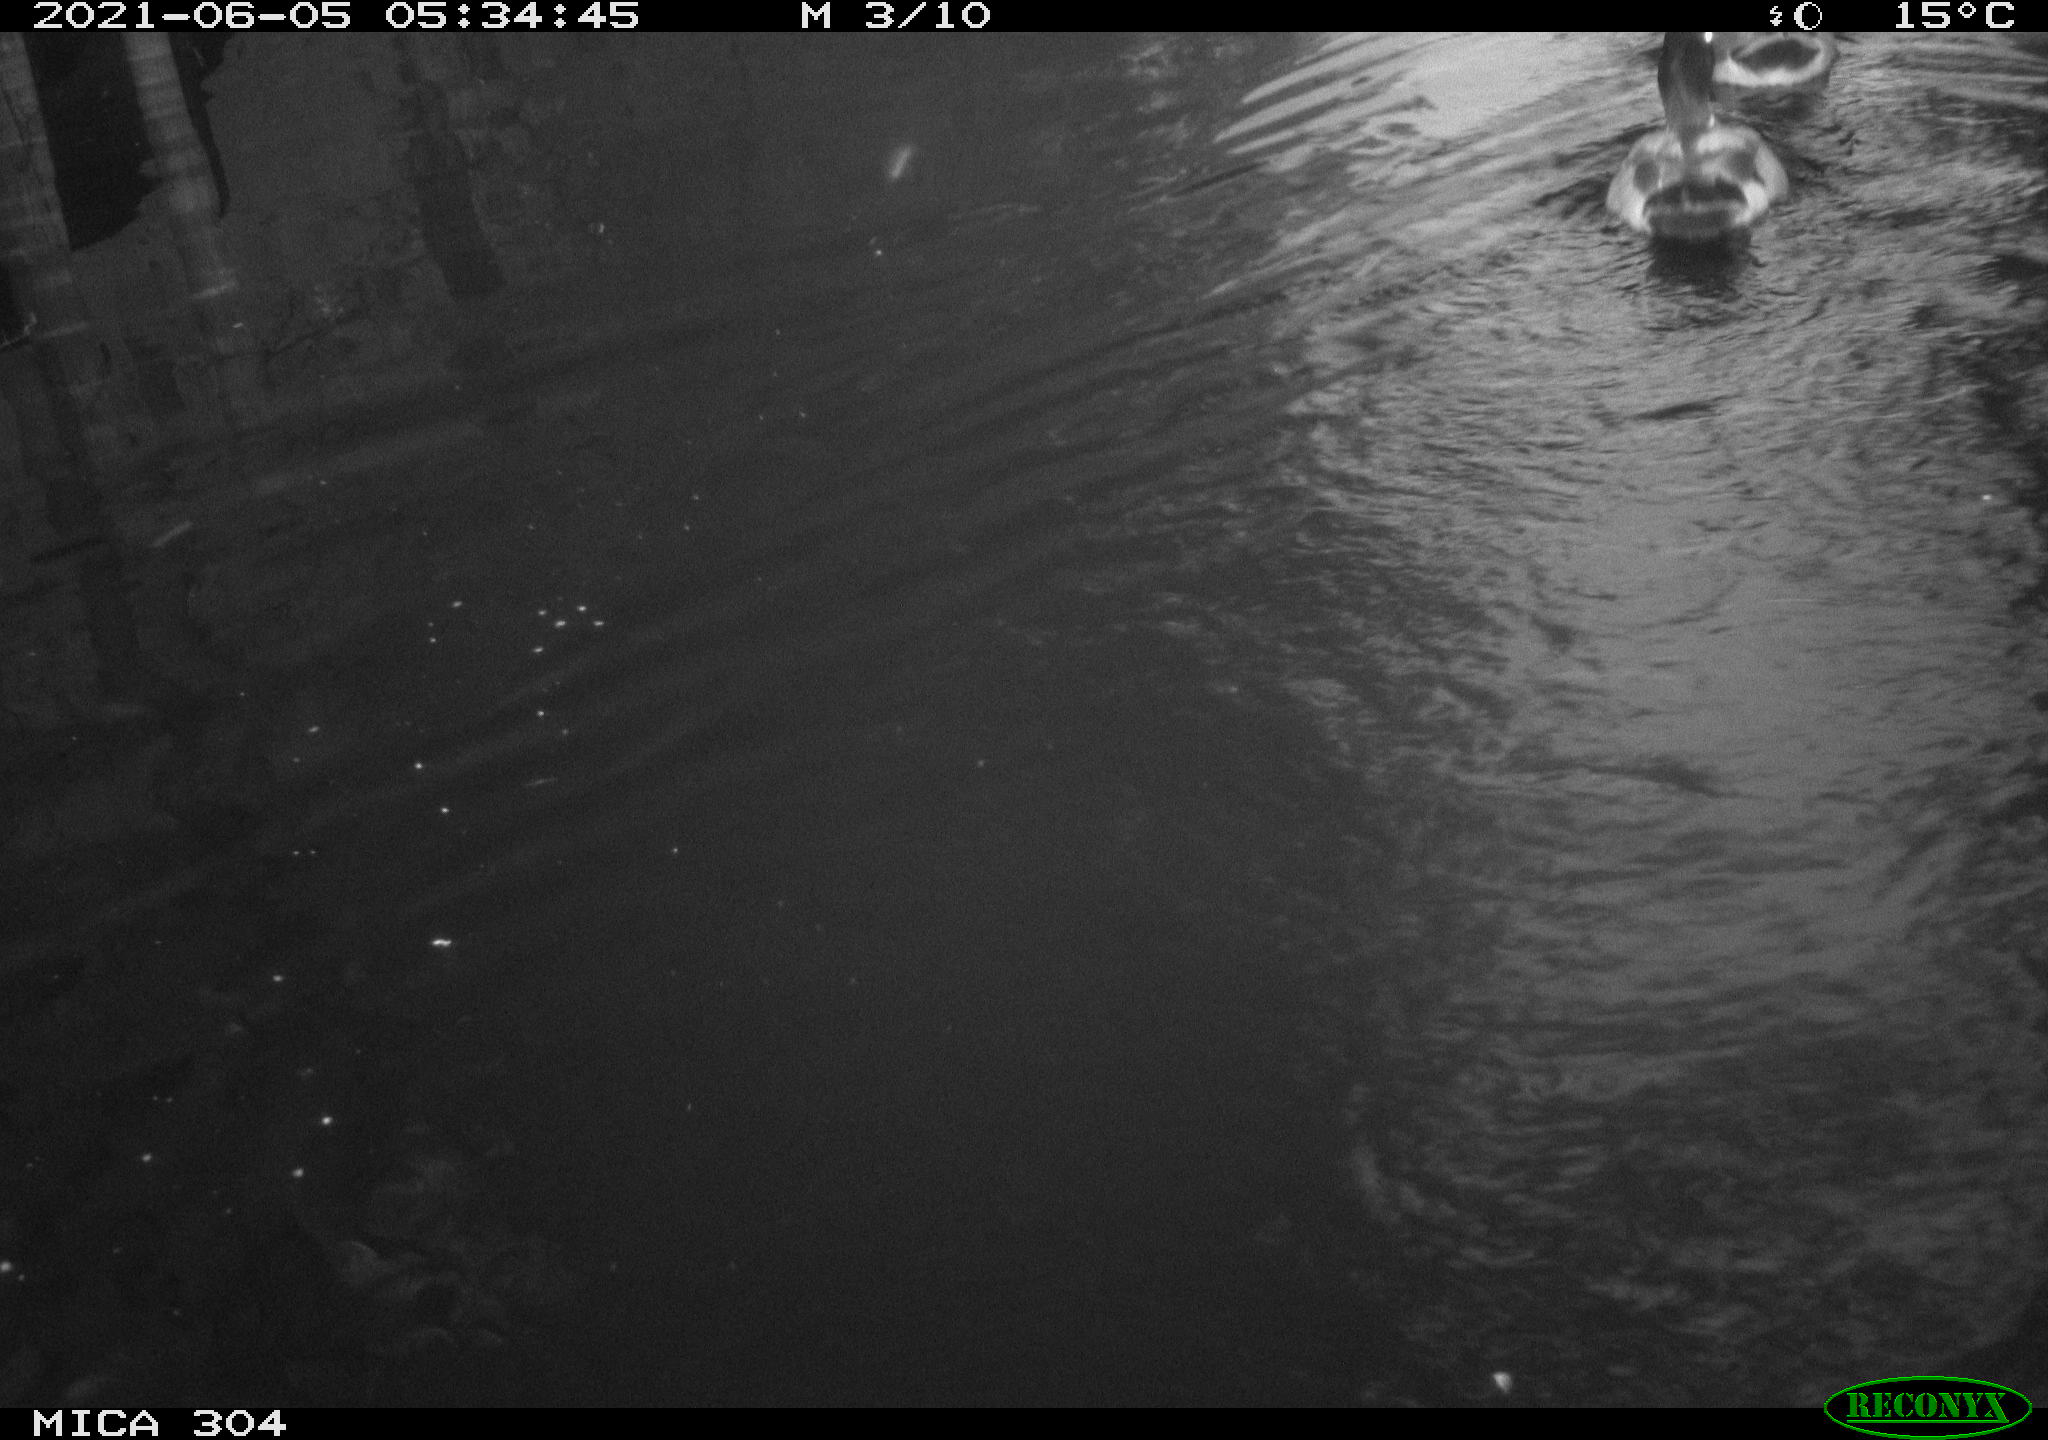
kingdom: Animalia
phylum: Chordata
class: Aves
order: Anseriformes
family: Anatidae
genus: Anas
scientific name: Anas platyrhynchos
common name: Mallard
